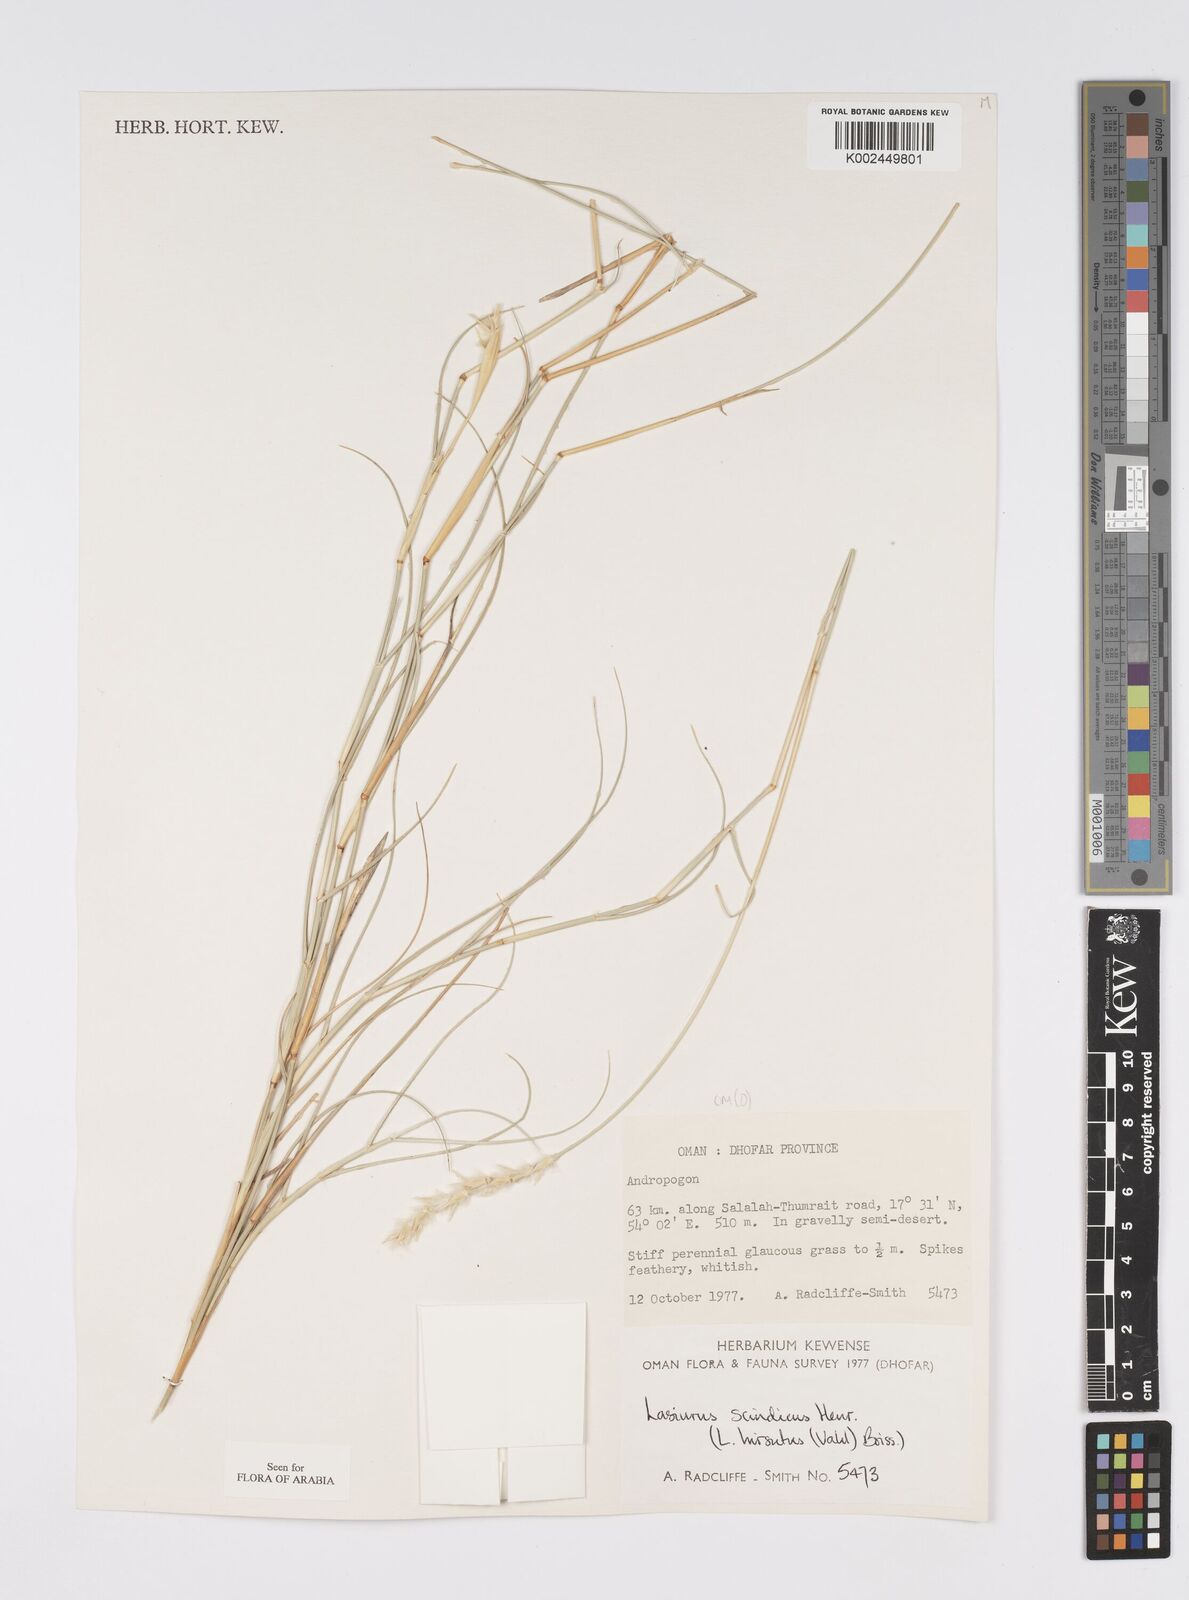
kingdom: Plantae
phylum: Tracheophyta
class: Liliopsida
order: Poales
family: Poaceae
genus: Lasiurus
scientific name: Lasiurus scindicus
